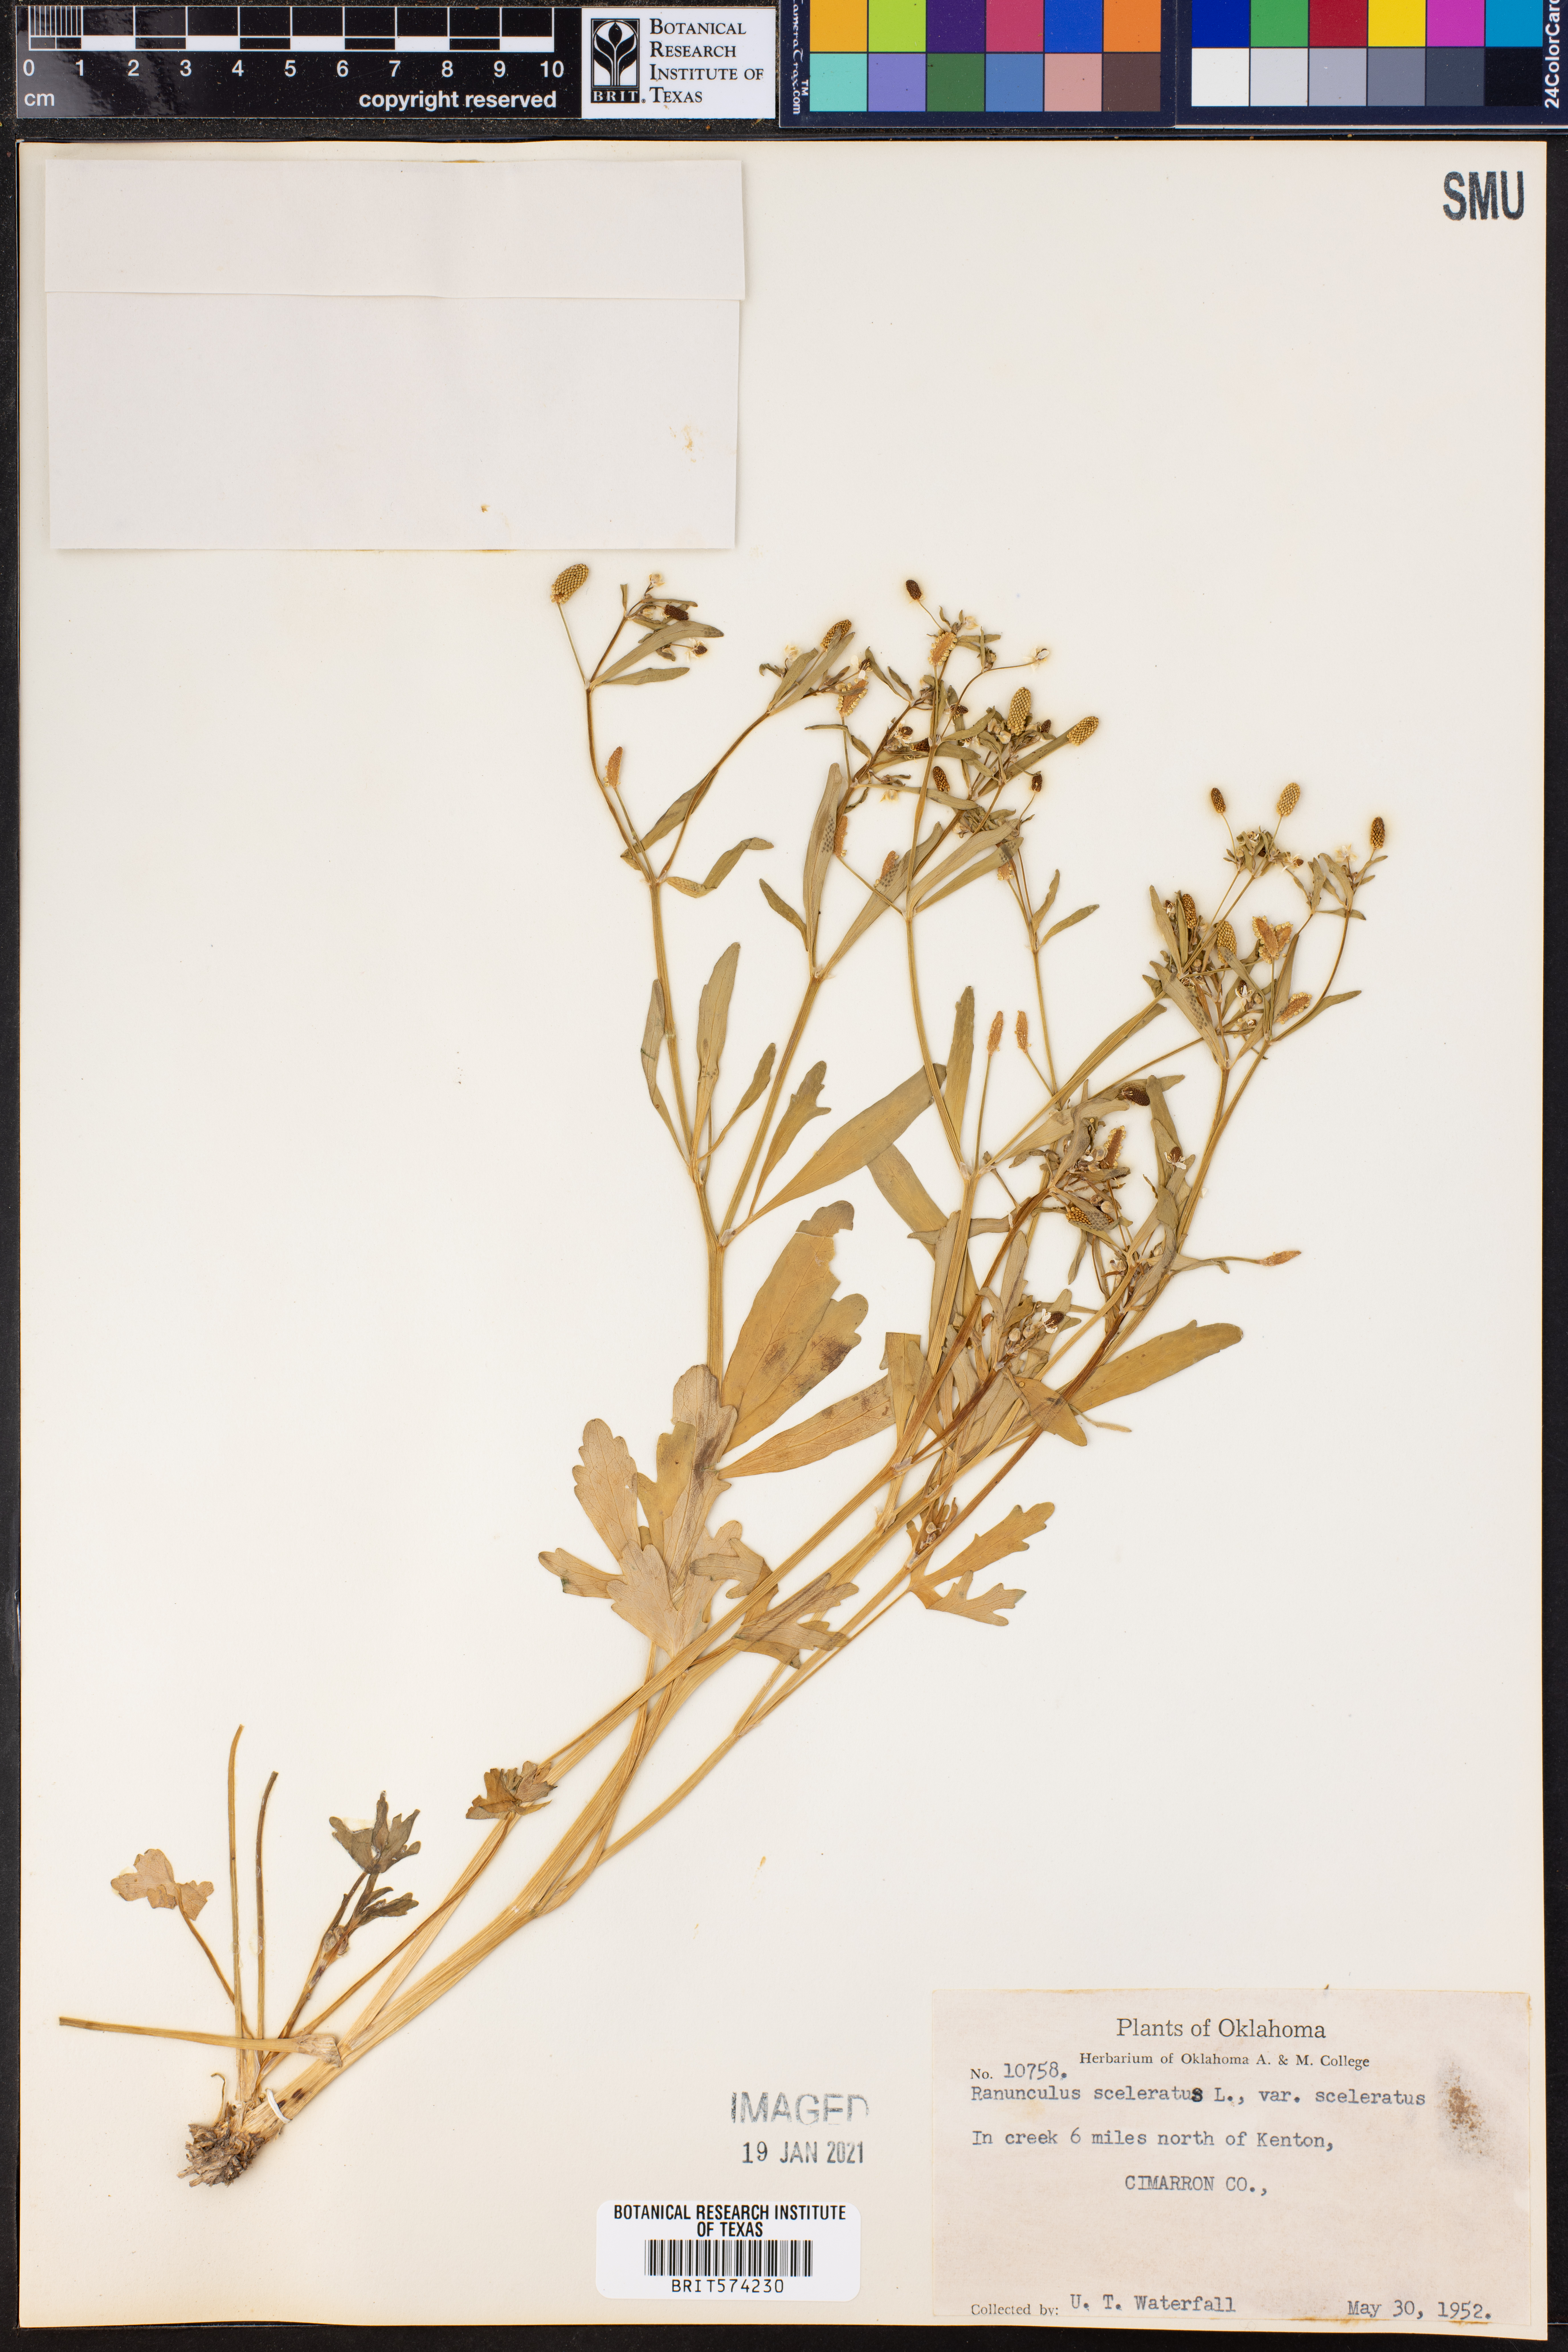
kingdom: Plantae
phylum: Tracheophyta
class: Magnoliopsida
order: Ranunculales
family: Ranunculaceae
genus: Ranunculus
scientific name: Ranunculus sceleratus
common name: Celery-leaved buttercup
